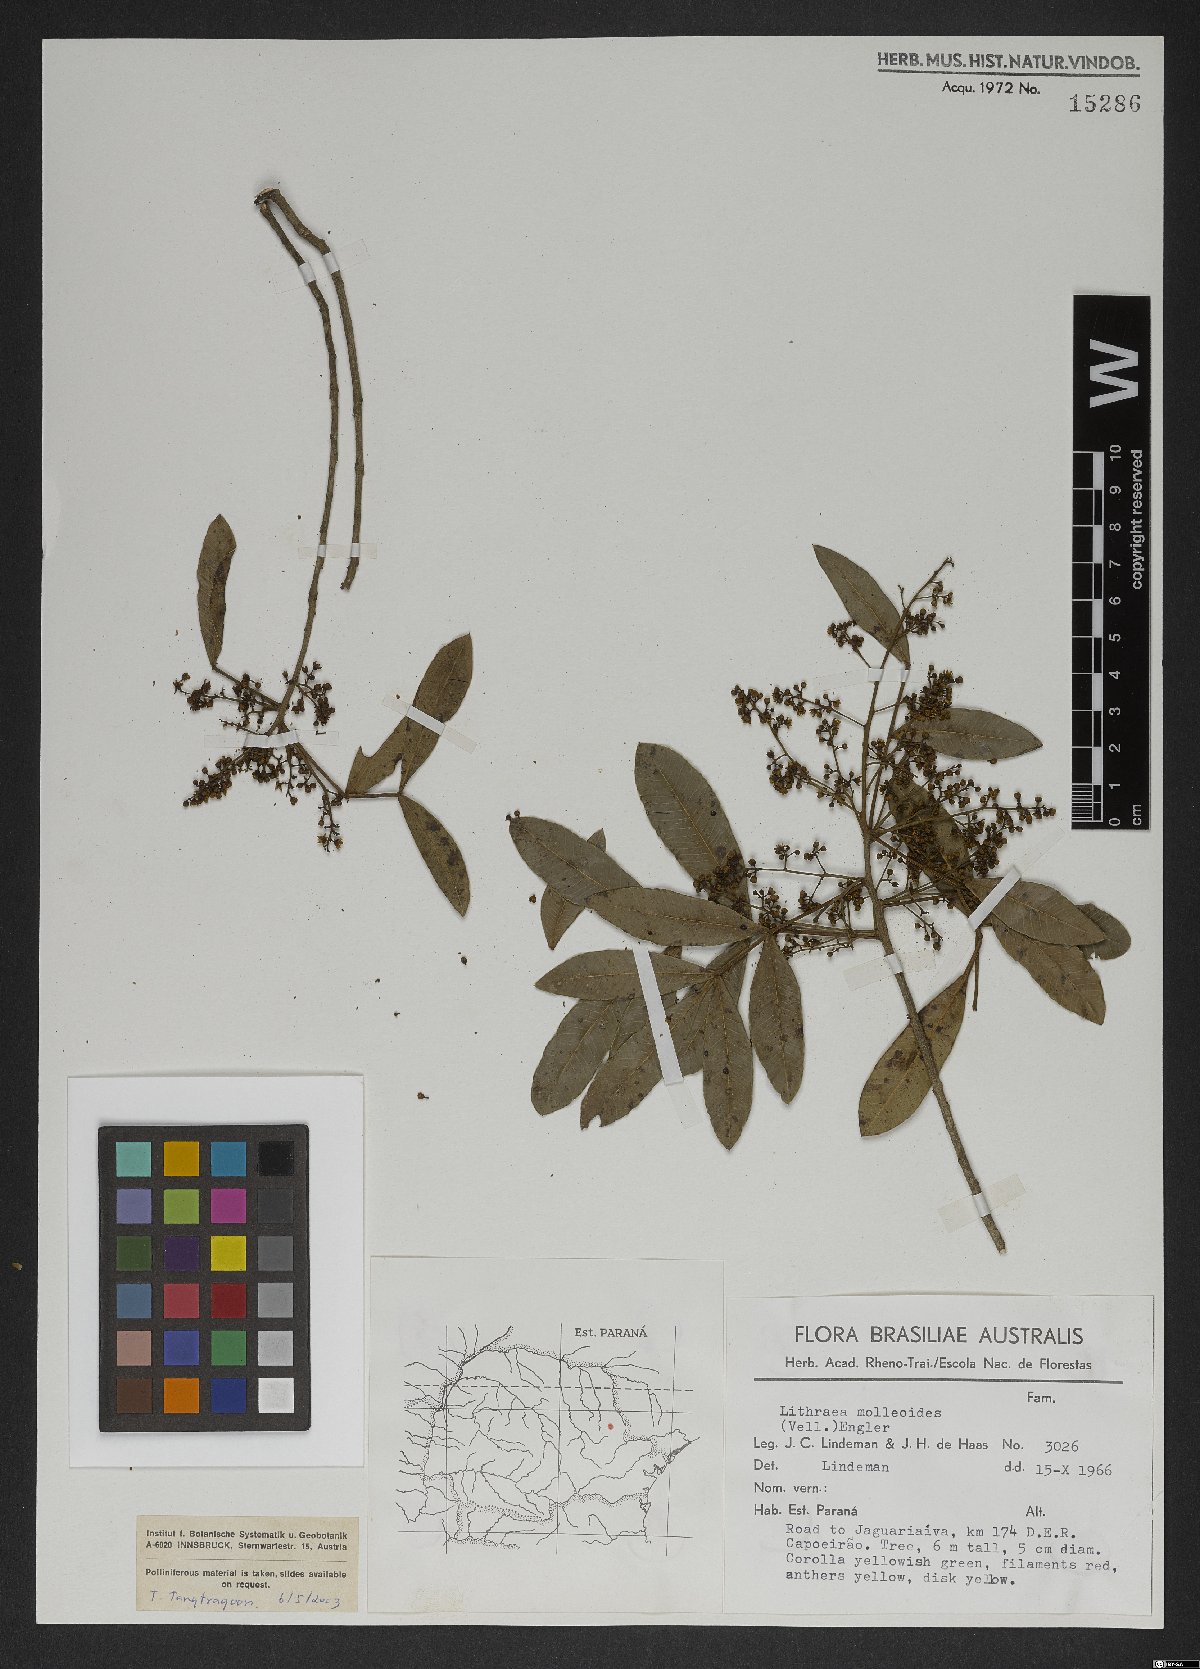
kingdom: Plantae
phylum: Tracheophyta
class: Magnoliopsida
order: Sapindales
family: Anacardiaceae
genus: Lithraea
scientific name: Lithraea molleoides
